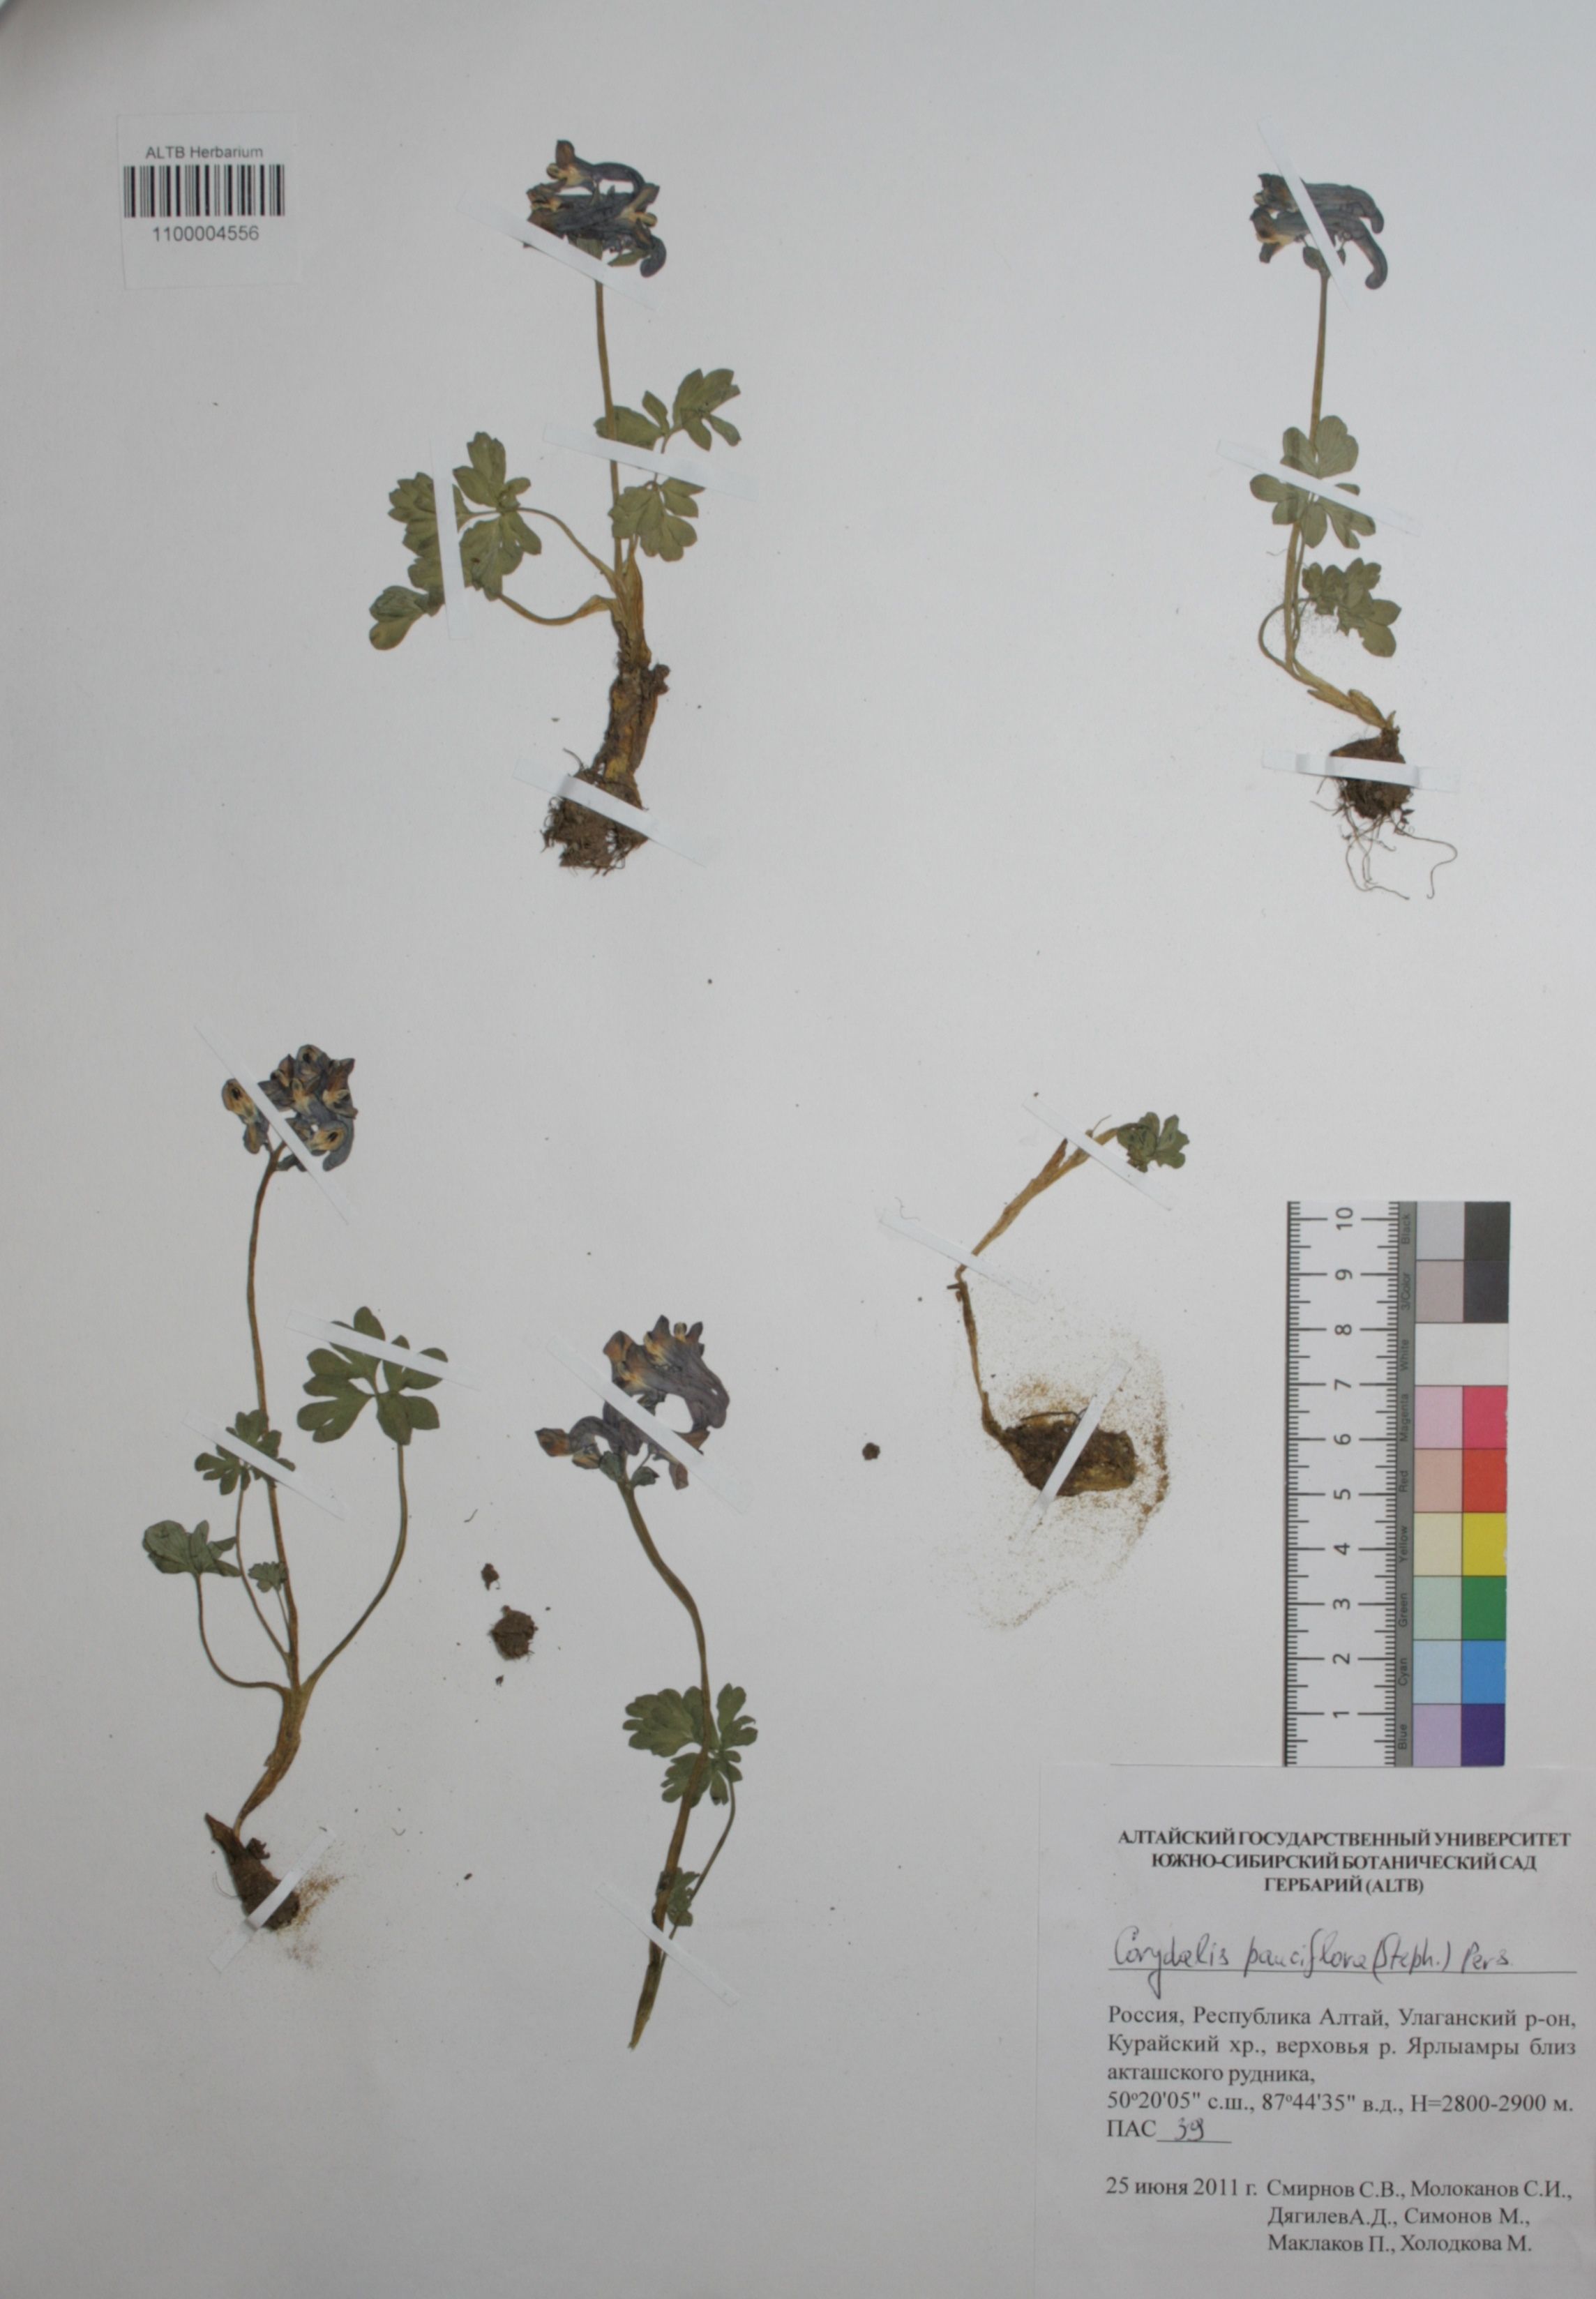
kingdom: Plantae
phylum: Tracheophyta
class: Magnoliopsida
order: Ranunculales
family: Papaveraceae
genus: Corydalis
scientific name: Corydalis pauciflora
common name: Blue corydalis
